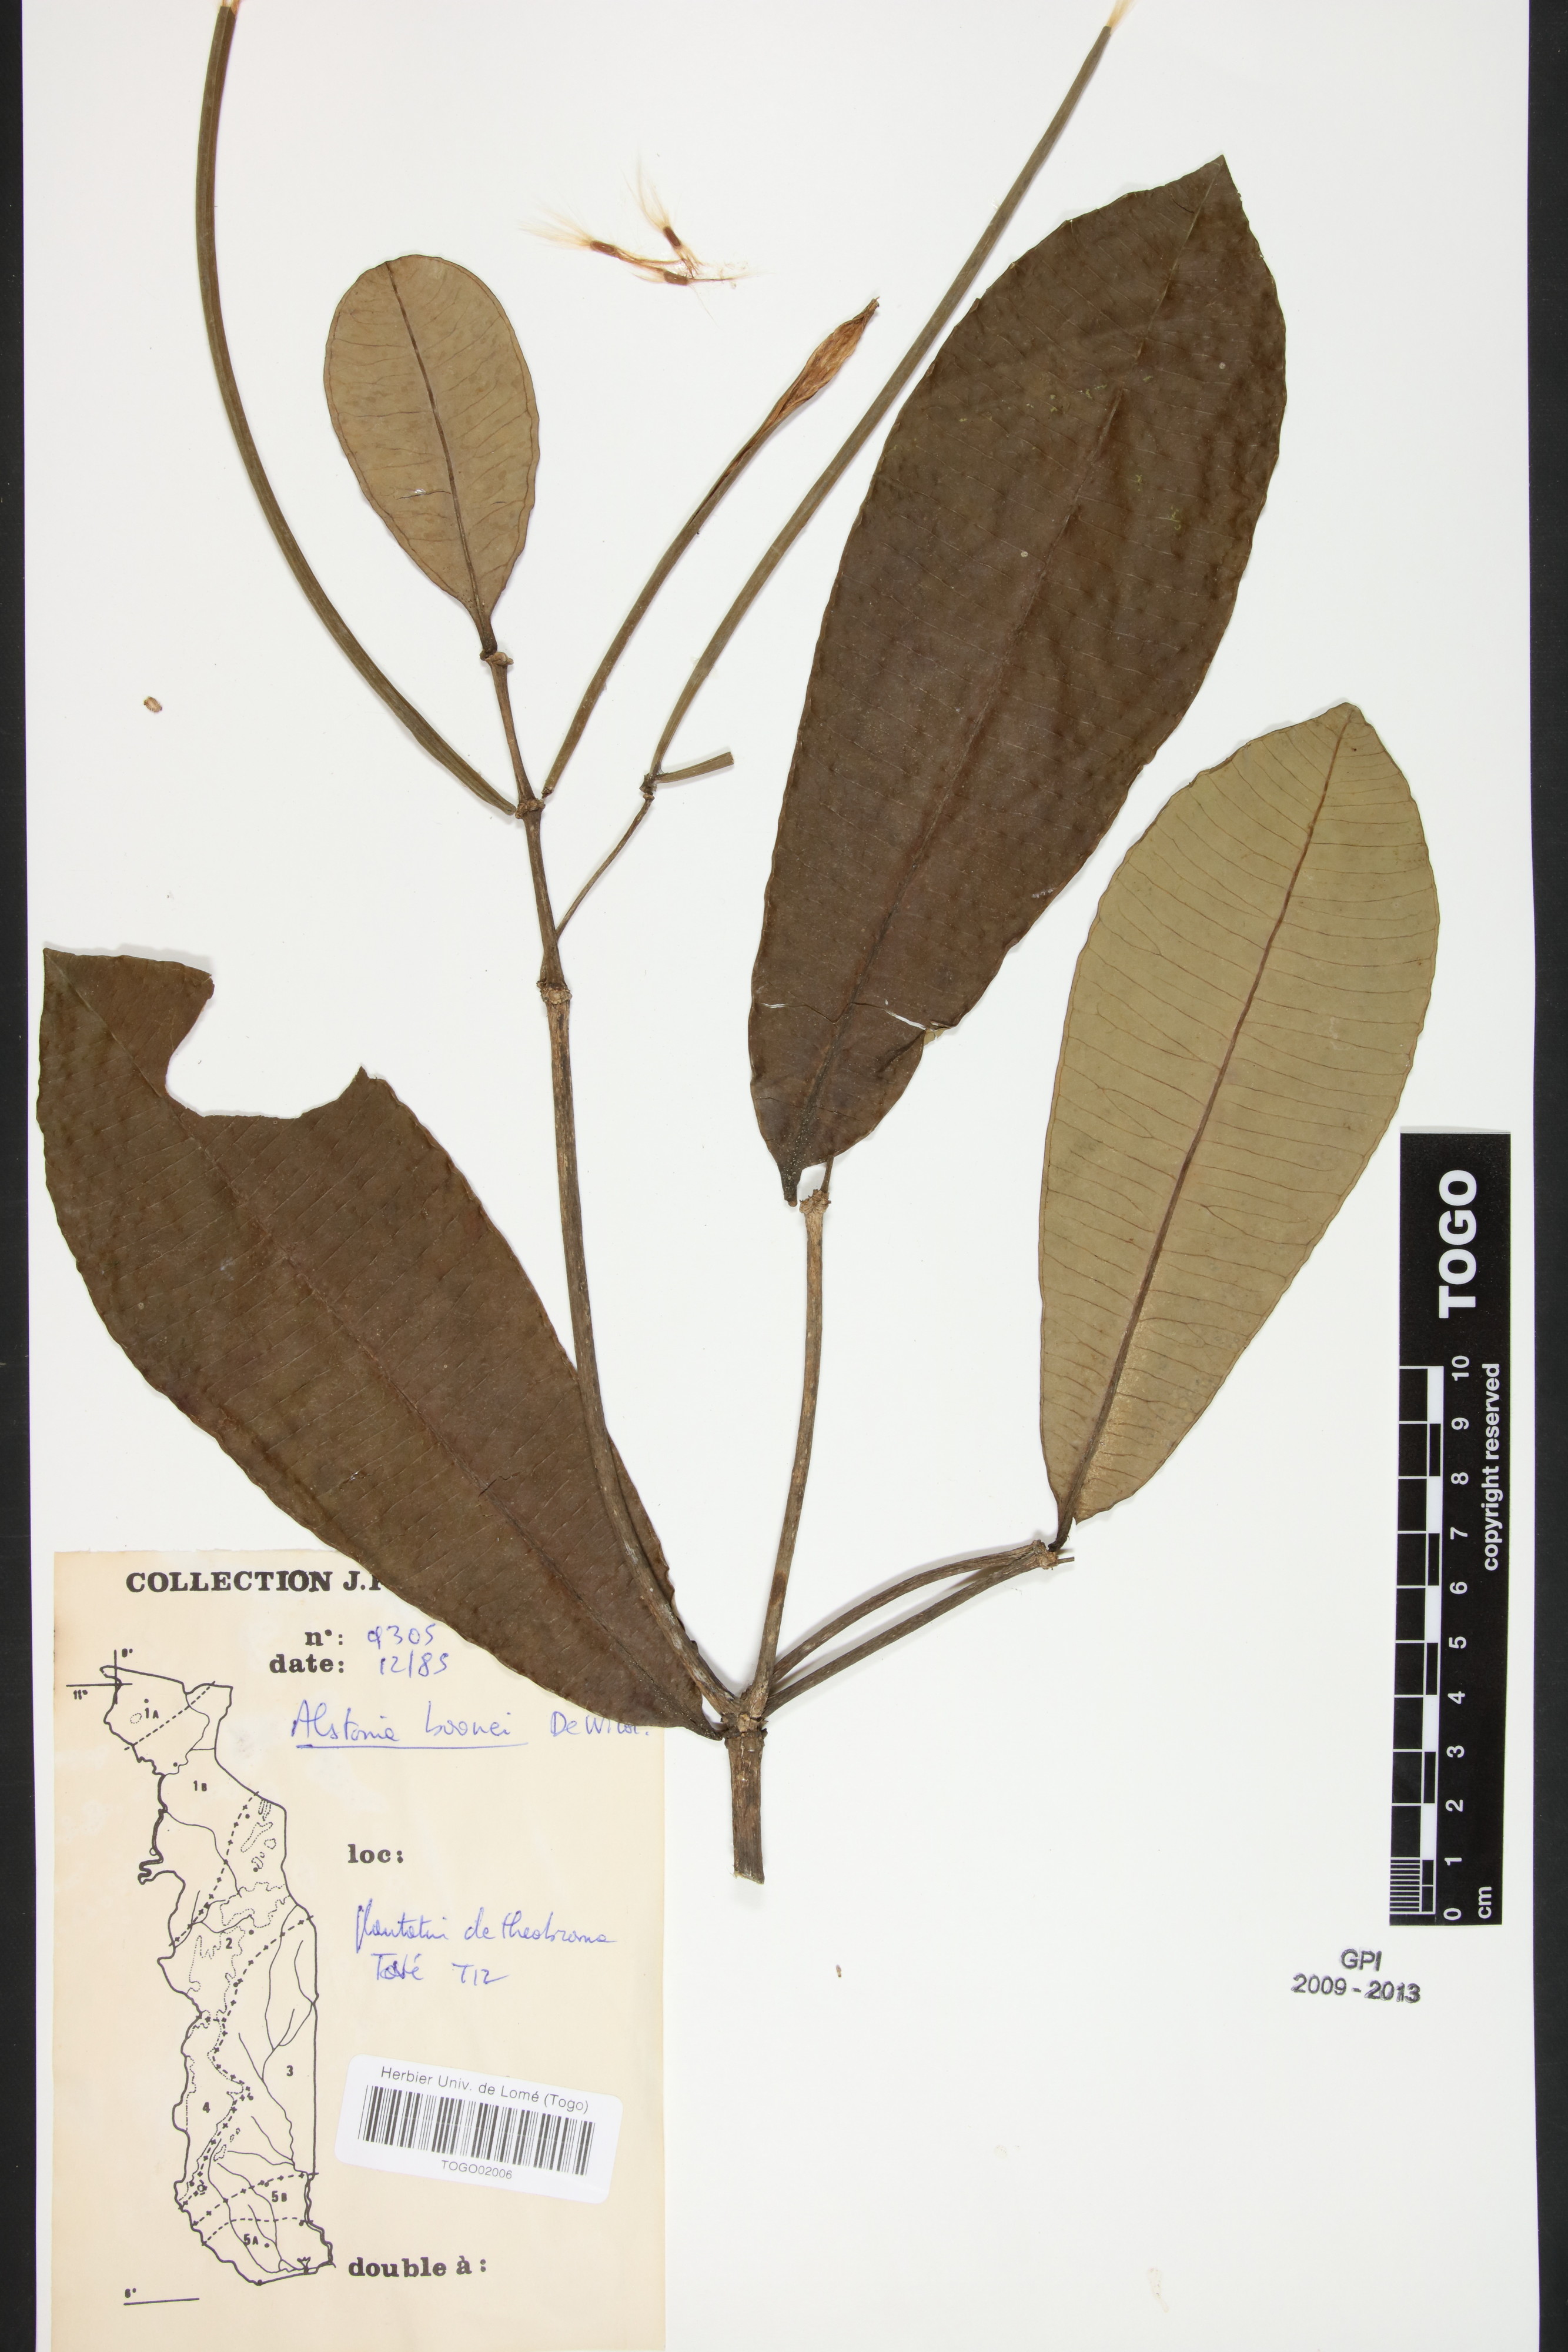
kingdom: Plantae
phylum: Tracheophyta
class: Magnoliopsida
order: Gentianales
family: Apocynaceae
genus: Alstonia
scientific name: Alstonia boonei
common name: Alstonia
